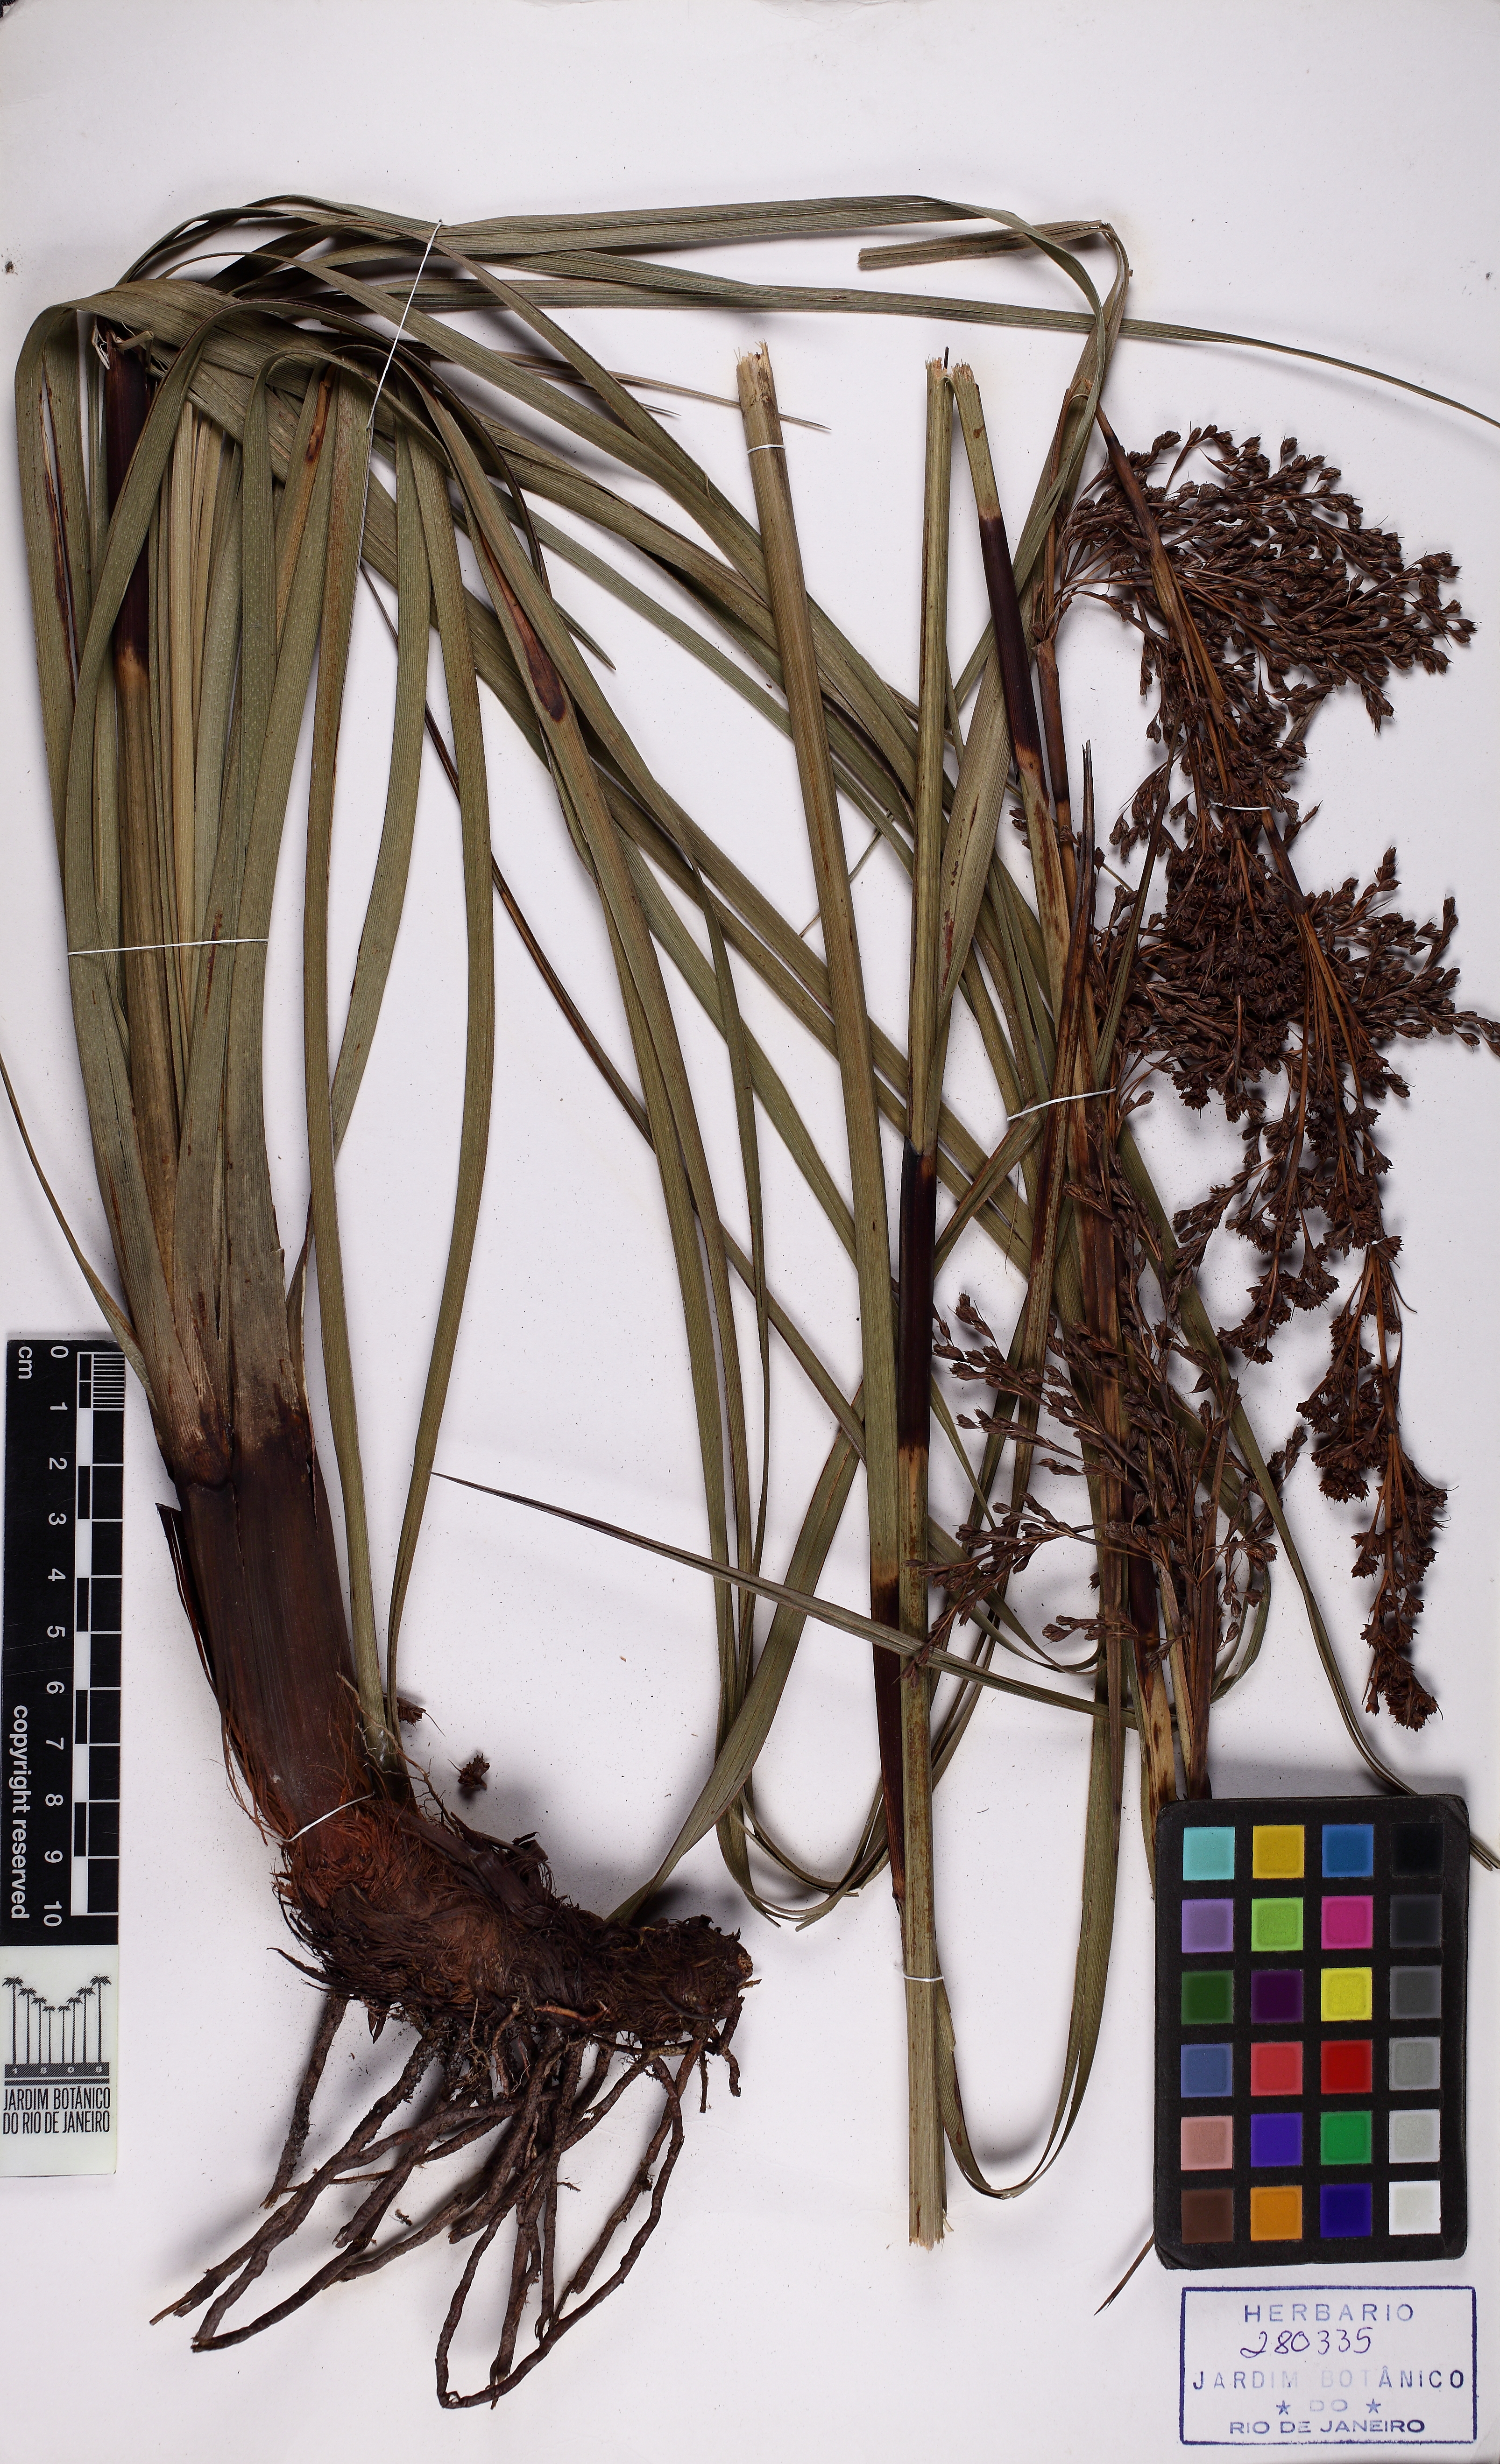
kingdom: Plantae
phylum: Tracheophyta
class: Liliopsida
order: Poales
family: Cyperaceae
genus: Lagenocarpus
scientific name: Lagenocarpus rigidus
